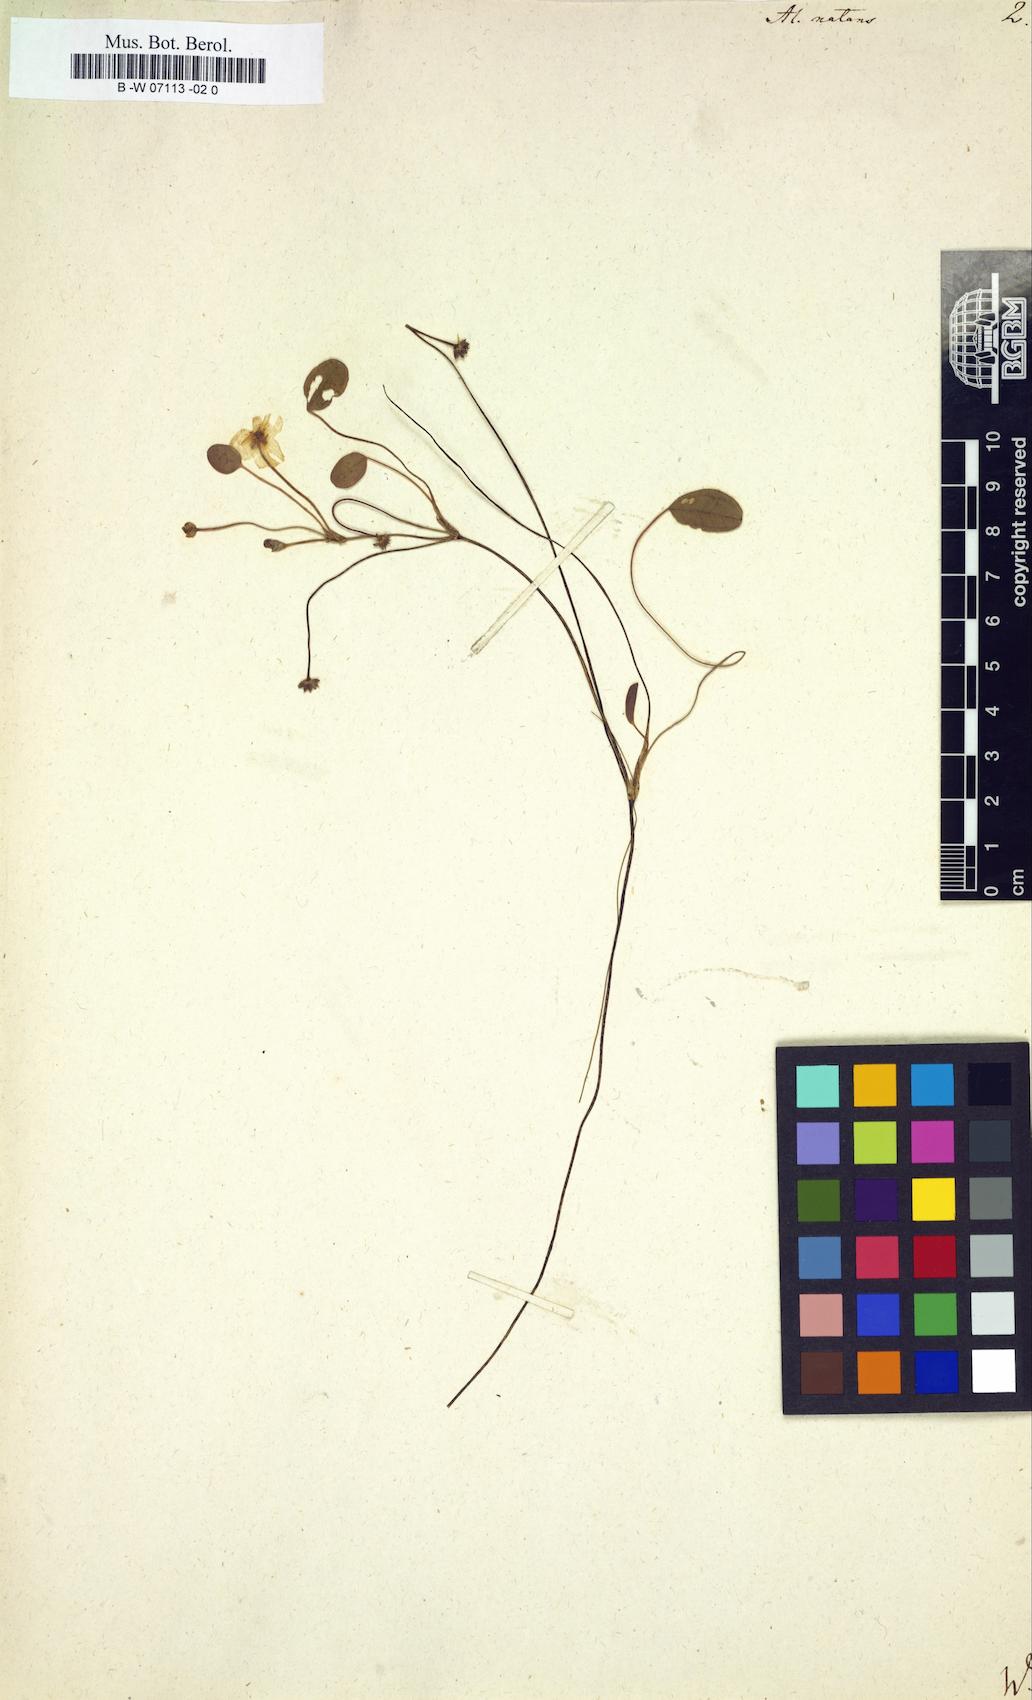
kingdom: Plantae
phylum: Tracheophyta
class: Liliopsida
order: Alismatales
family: Alismataceae
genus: Luronium
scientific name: Luronium natans
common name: Floating water-plantain
